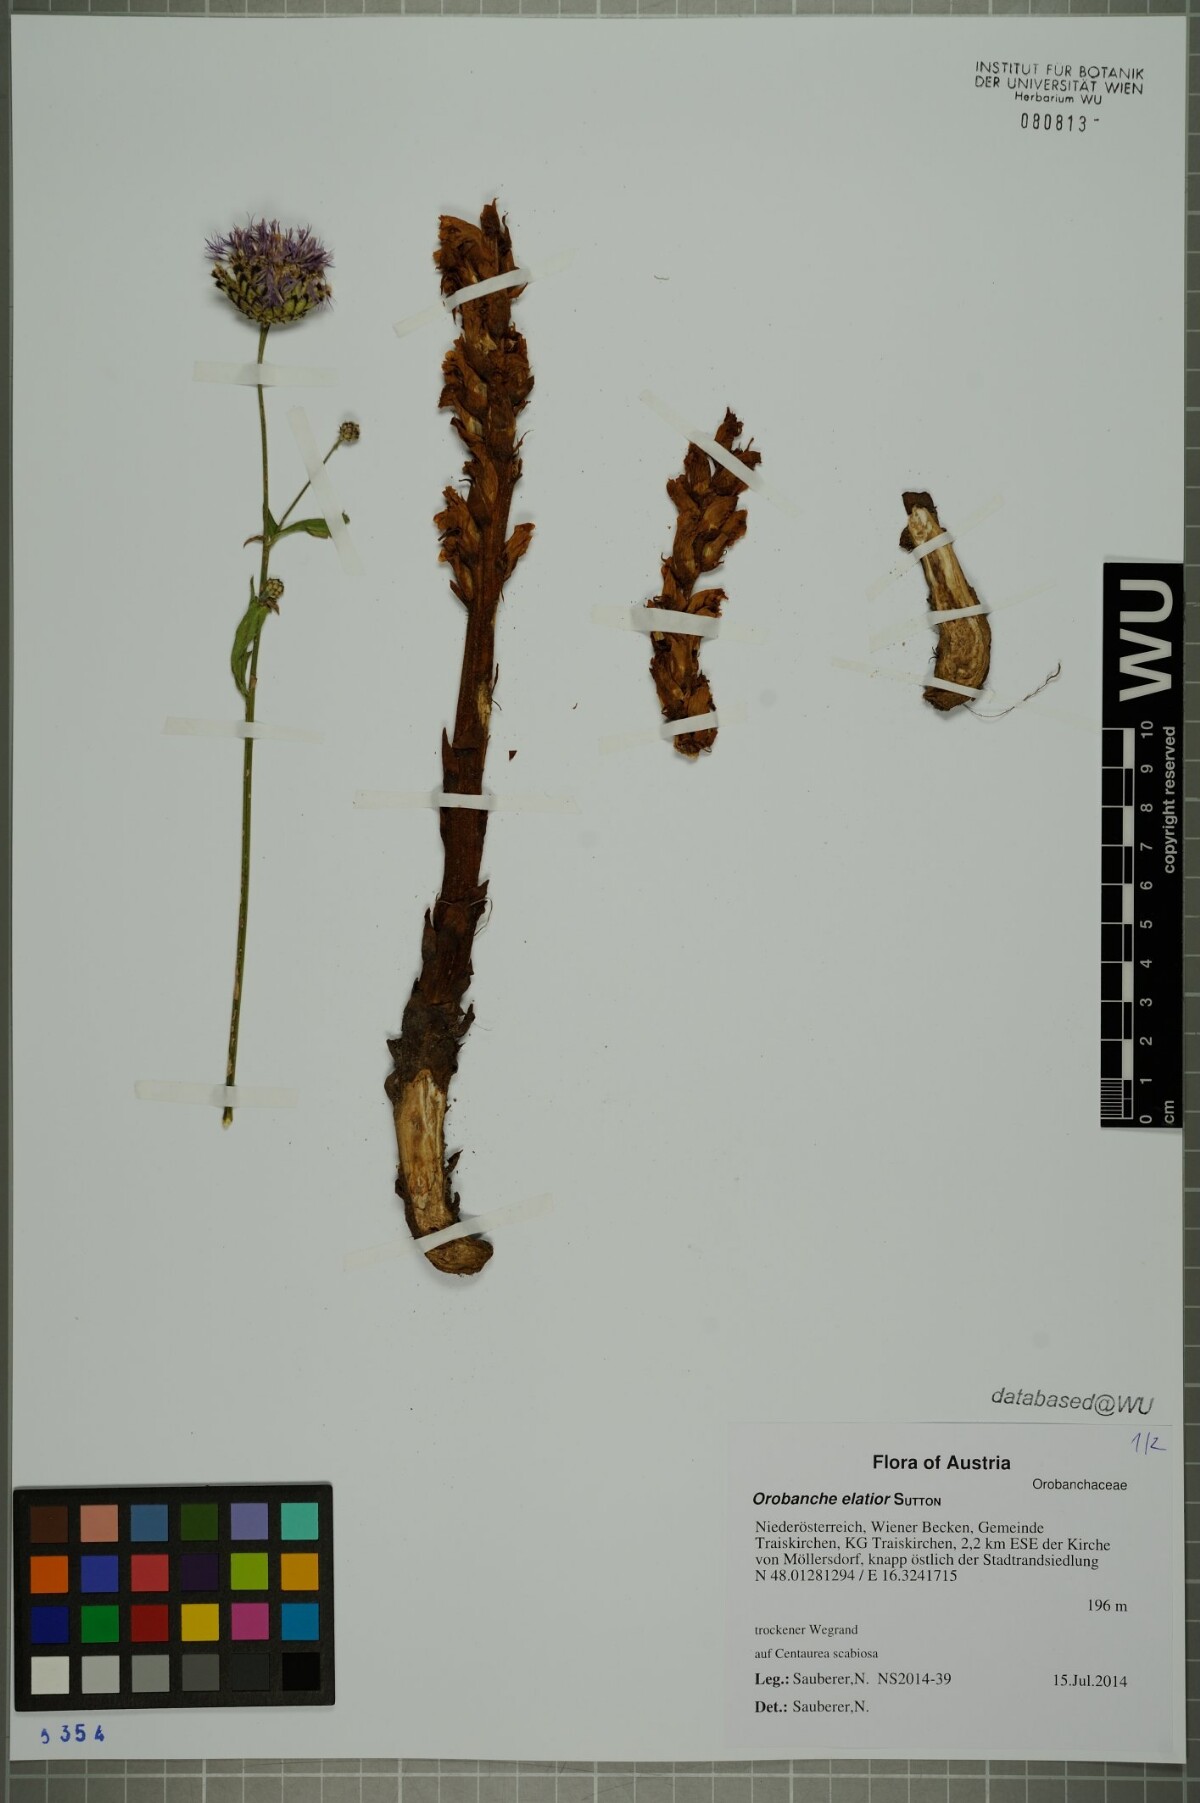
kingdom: Plantae
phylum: Tracheophyta
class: Magnoliopsida
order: Lamiales
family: Orobanchaceae
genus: Orobanche
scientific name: Orobanche elatior
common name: Knapweed broomrape
